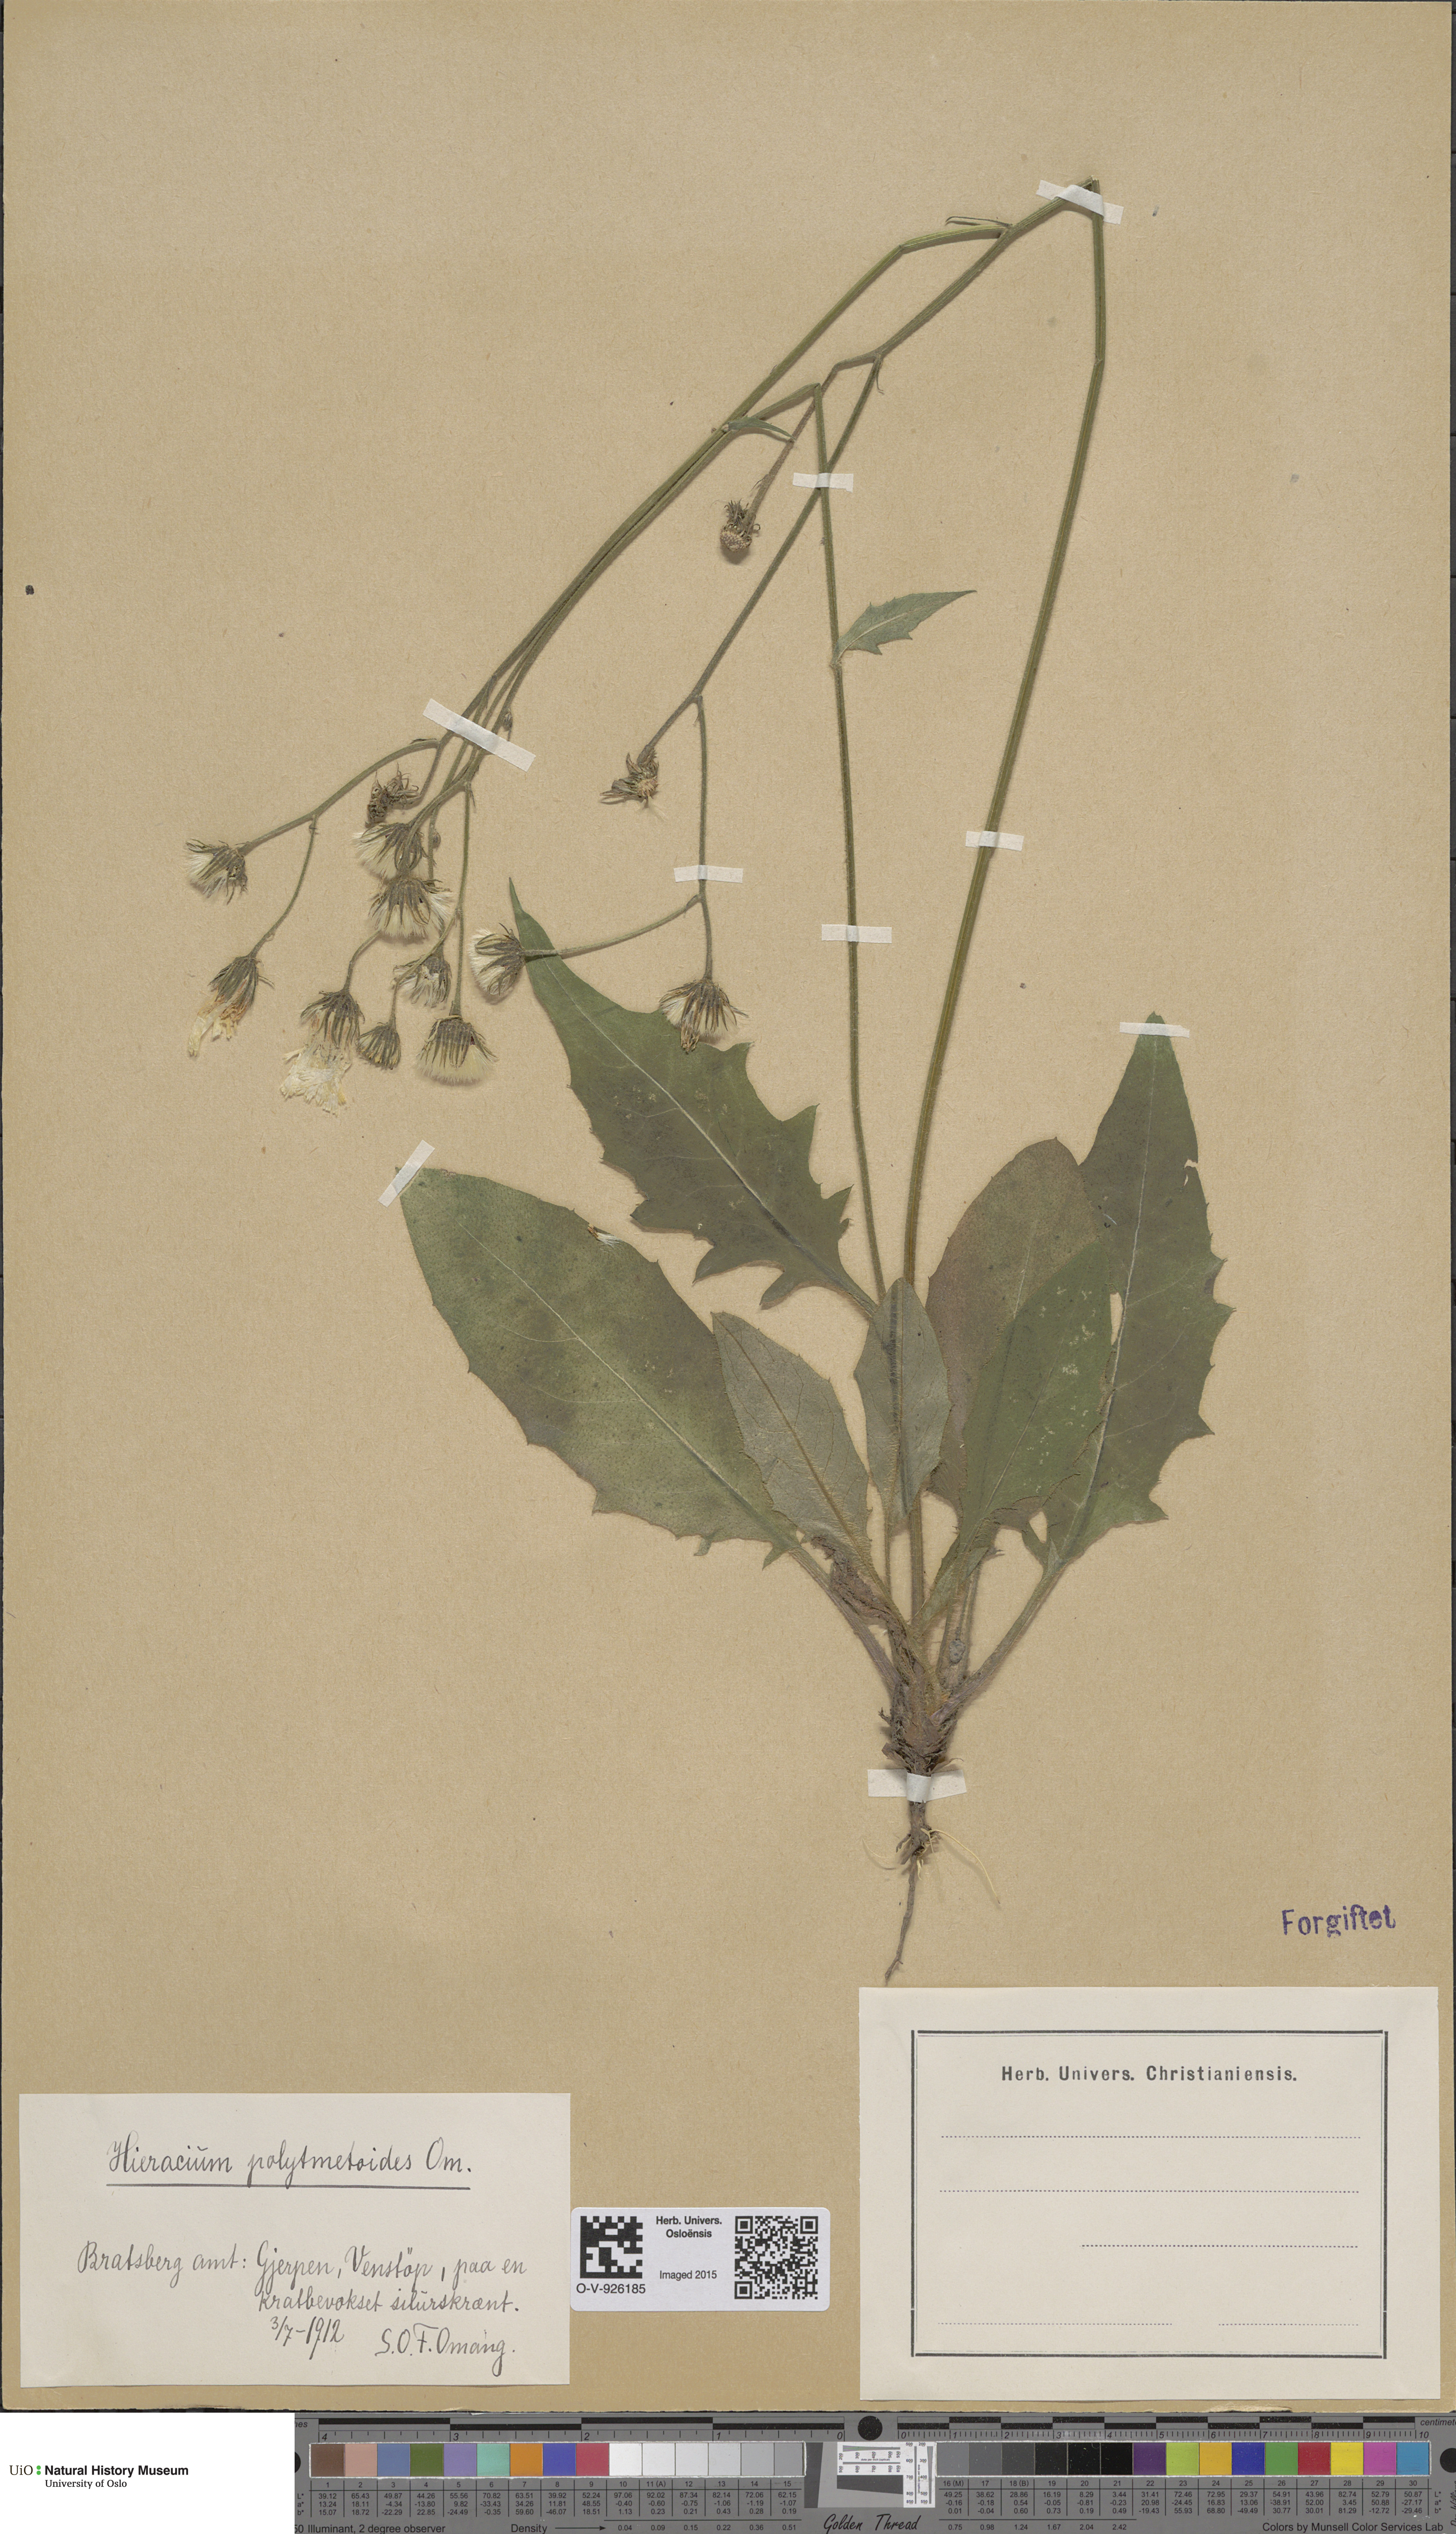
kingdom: Plantae
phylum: Tracheophyta
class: Magnoliopsida
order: Asterales
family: Asteraceae
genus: Hieracium
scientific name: Hieracium
